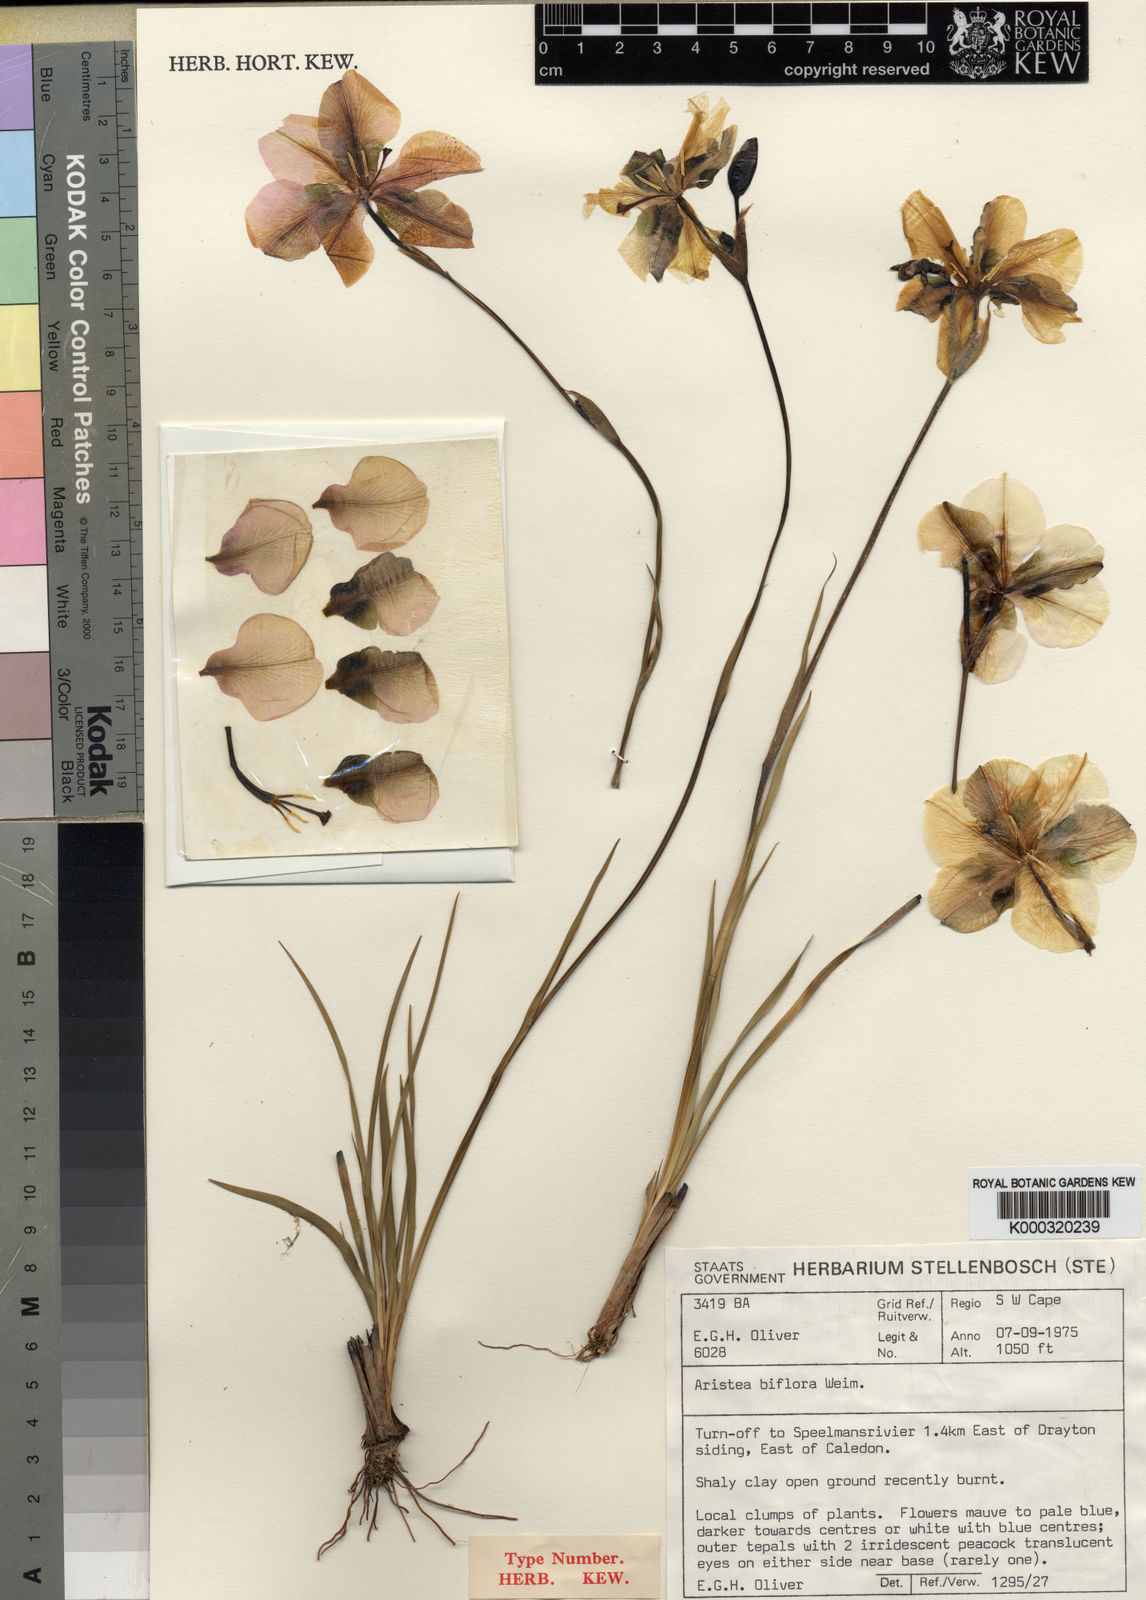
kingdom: Plantae
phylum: Tracheophyta
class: Liliopsida
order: Asparagales
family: Iridaceae
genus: Aristea
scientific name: Aristea biflora
